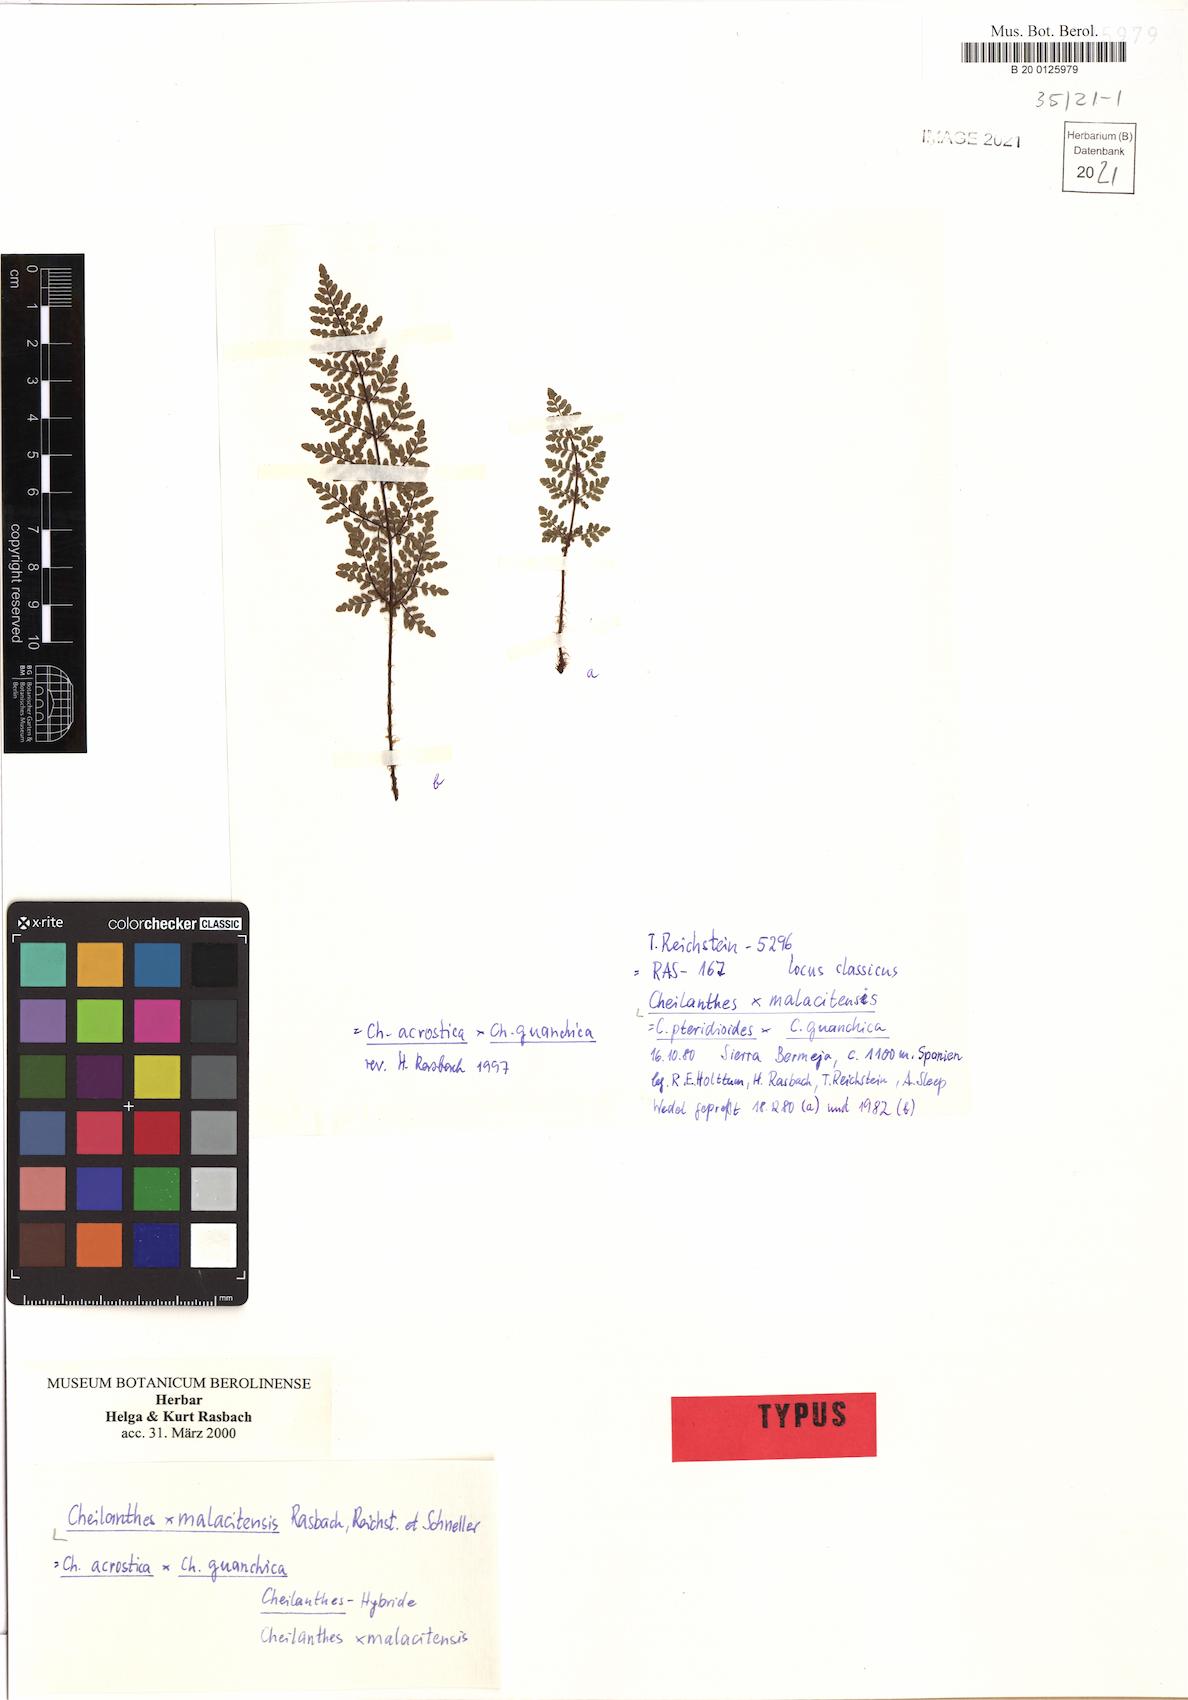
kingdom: Plantae
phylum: Tracheophyta
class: Polypodiopsida
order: Polypodiales
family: Pteridaceae
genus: Oeosporangium
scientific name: Oeosporangium malacitense
